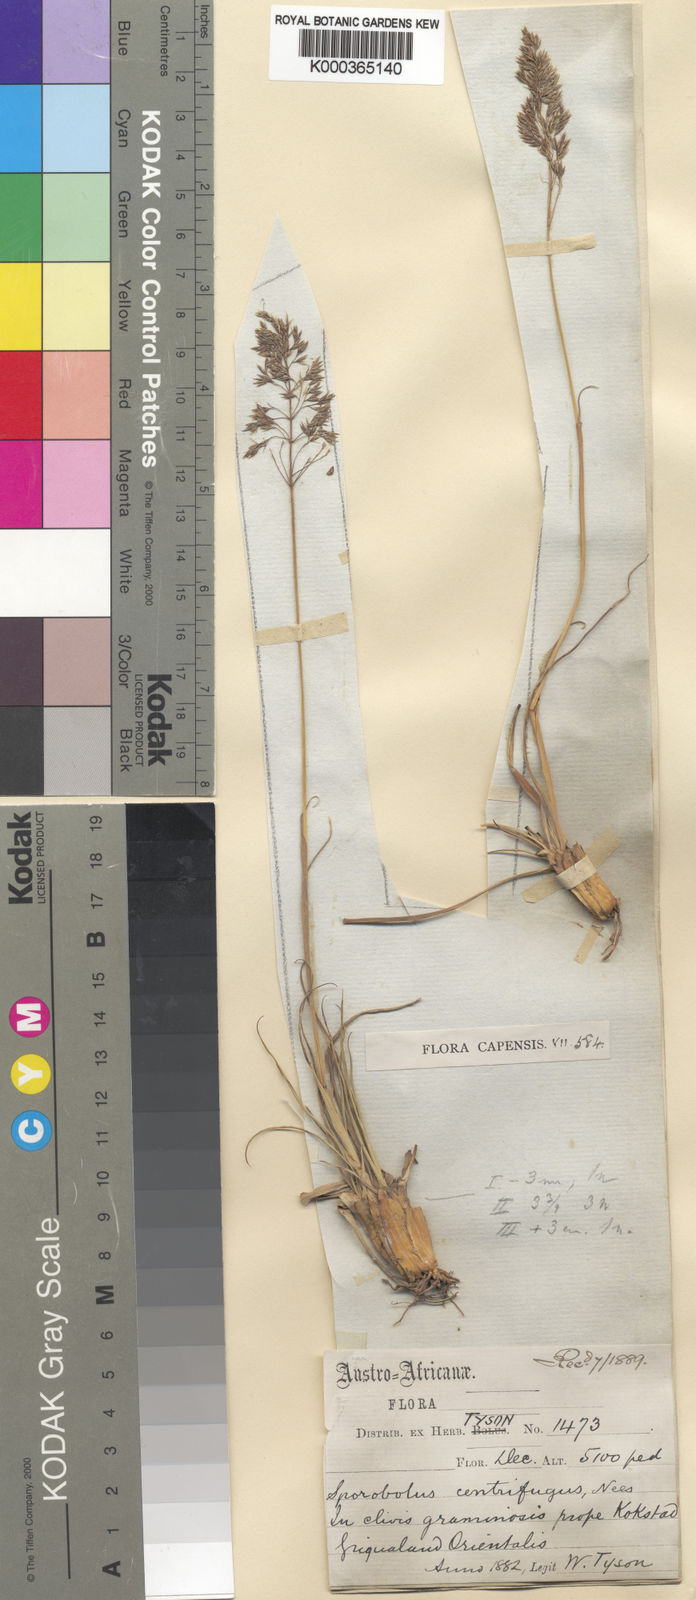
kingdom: Plantae
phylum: Tracheophyta
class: Liliopsida
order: Poales
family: Poaceae
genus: Sporobolus
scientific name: Sporobolus centrifugus
